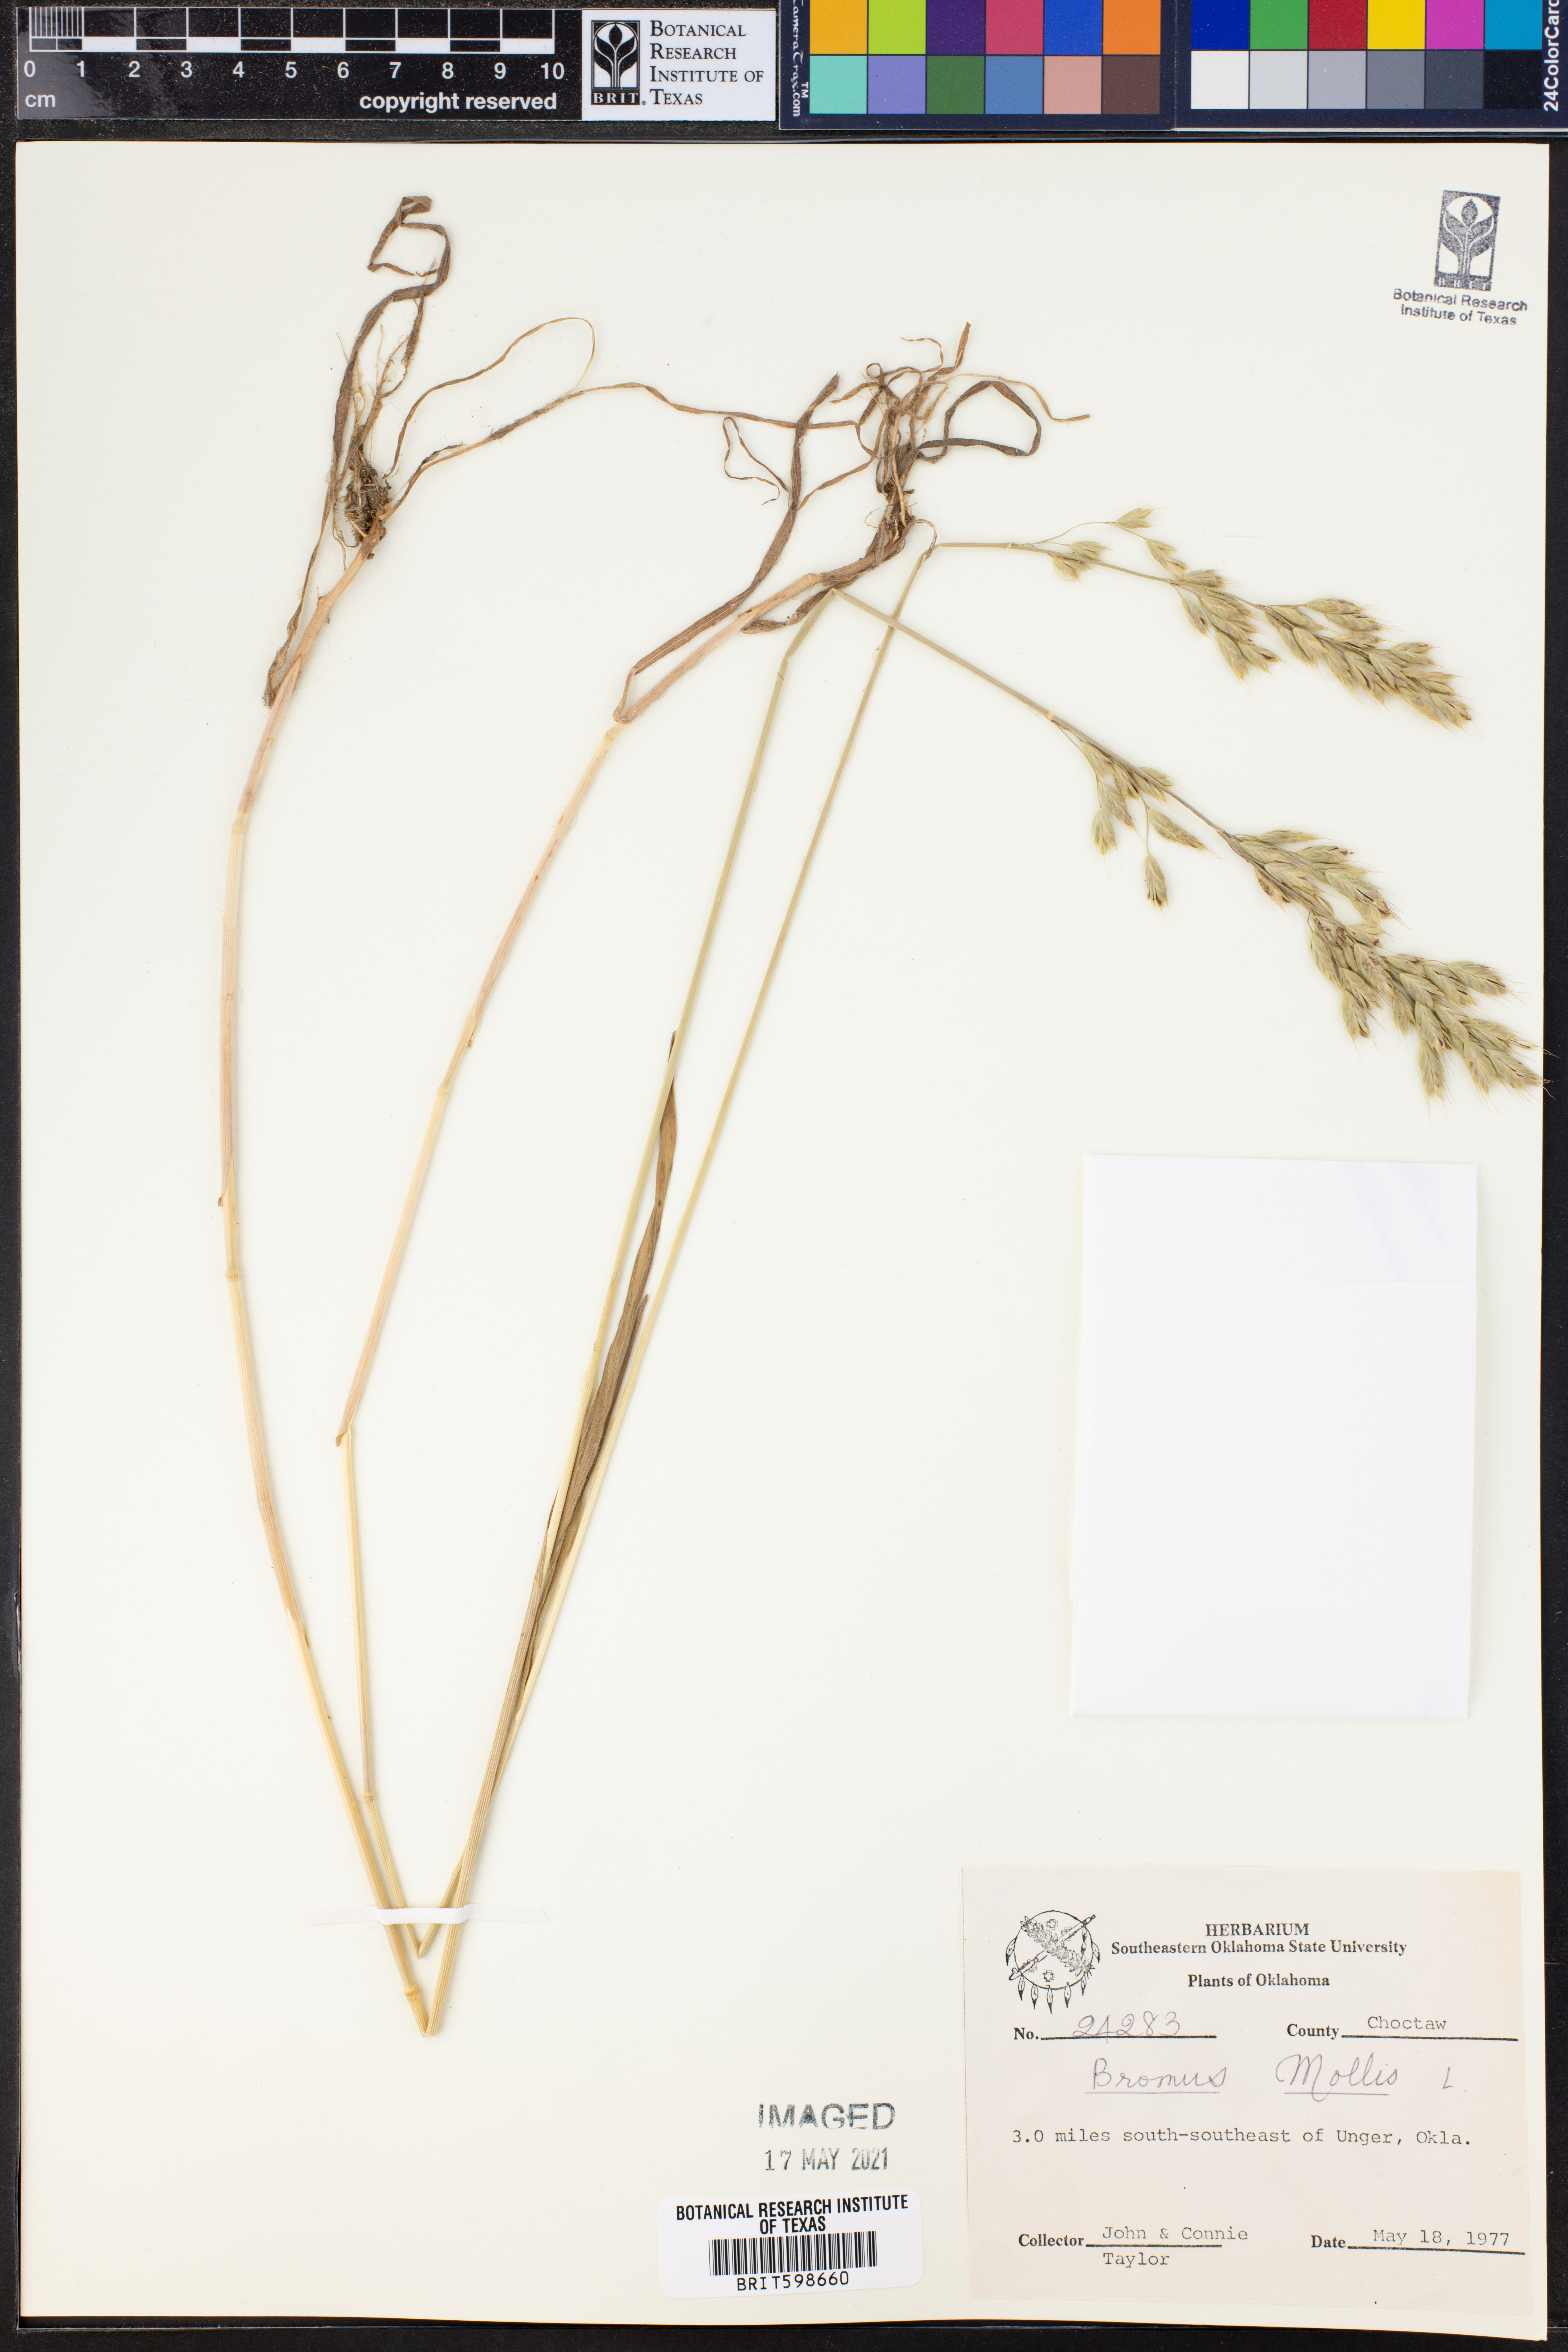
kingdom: Plantae
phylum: Tracheophyta
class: Liliopsida
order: Poales
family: Poaceae
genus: Bromus
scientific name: Bromus
